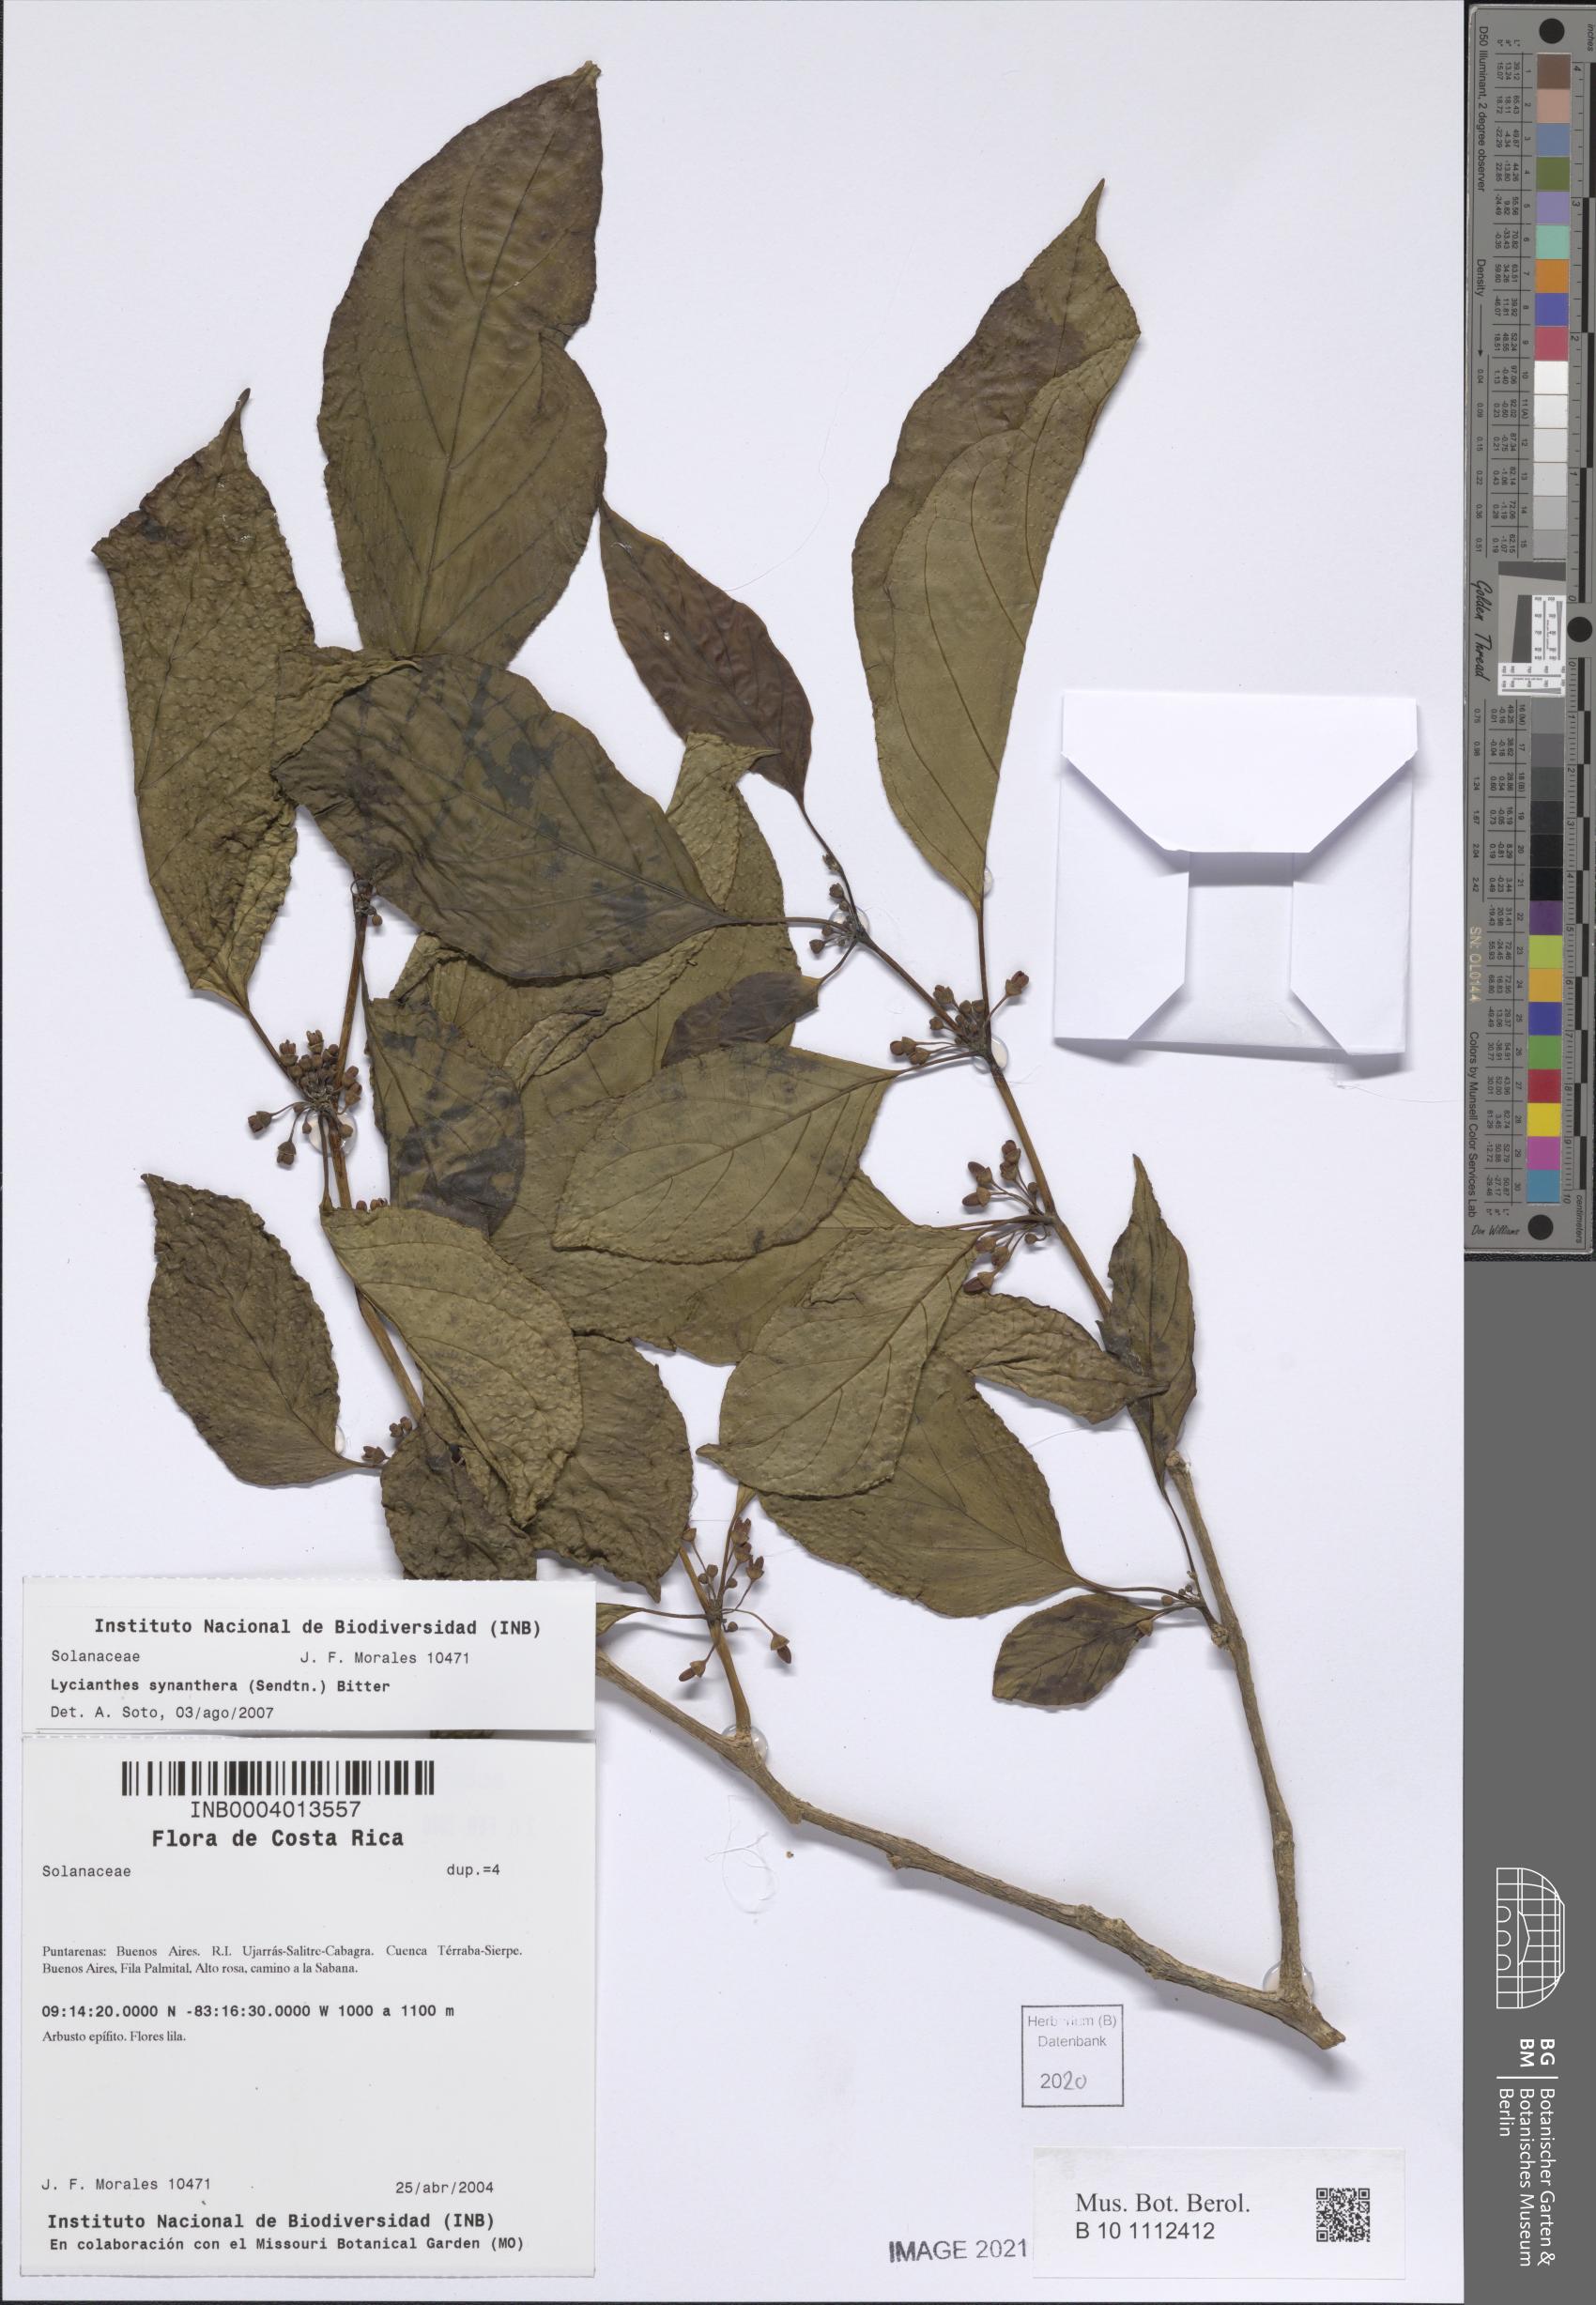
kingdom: Plantae
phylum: Tracheophyta
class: Magnoliopsida
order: Solanales
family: Solanaceae
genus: Lycianthes
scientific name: Lycianthes synanthera
